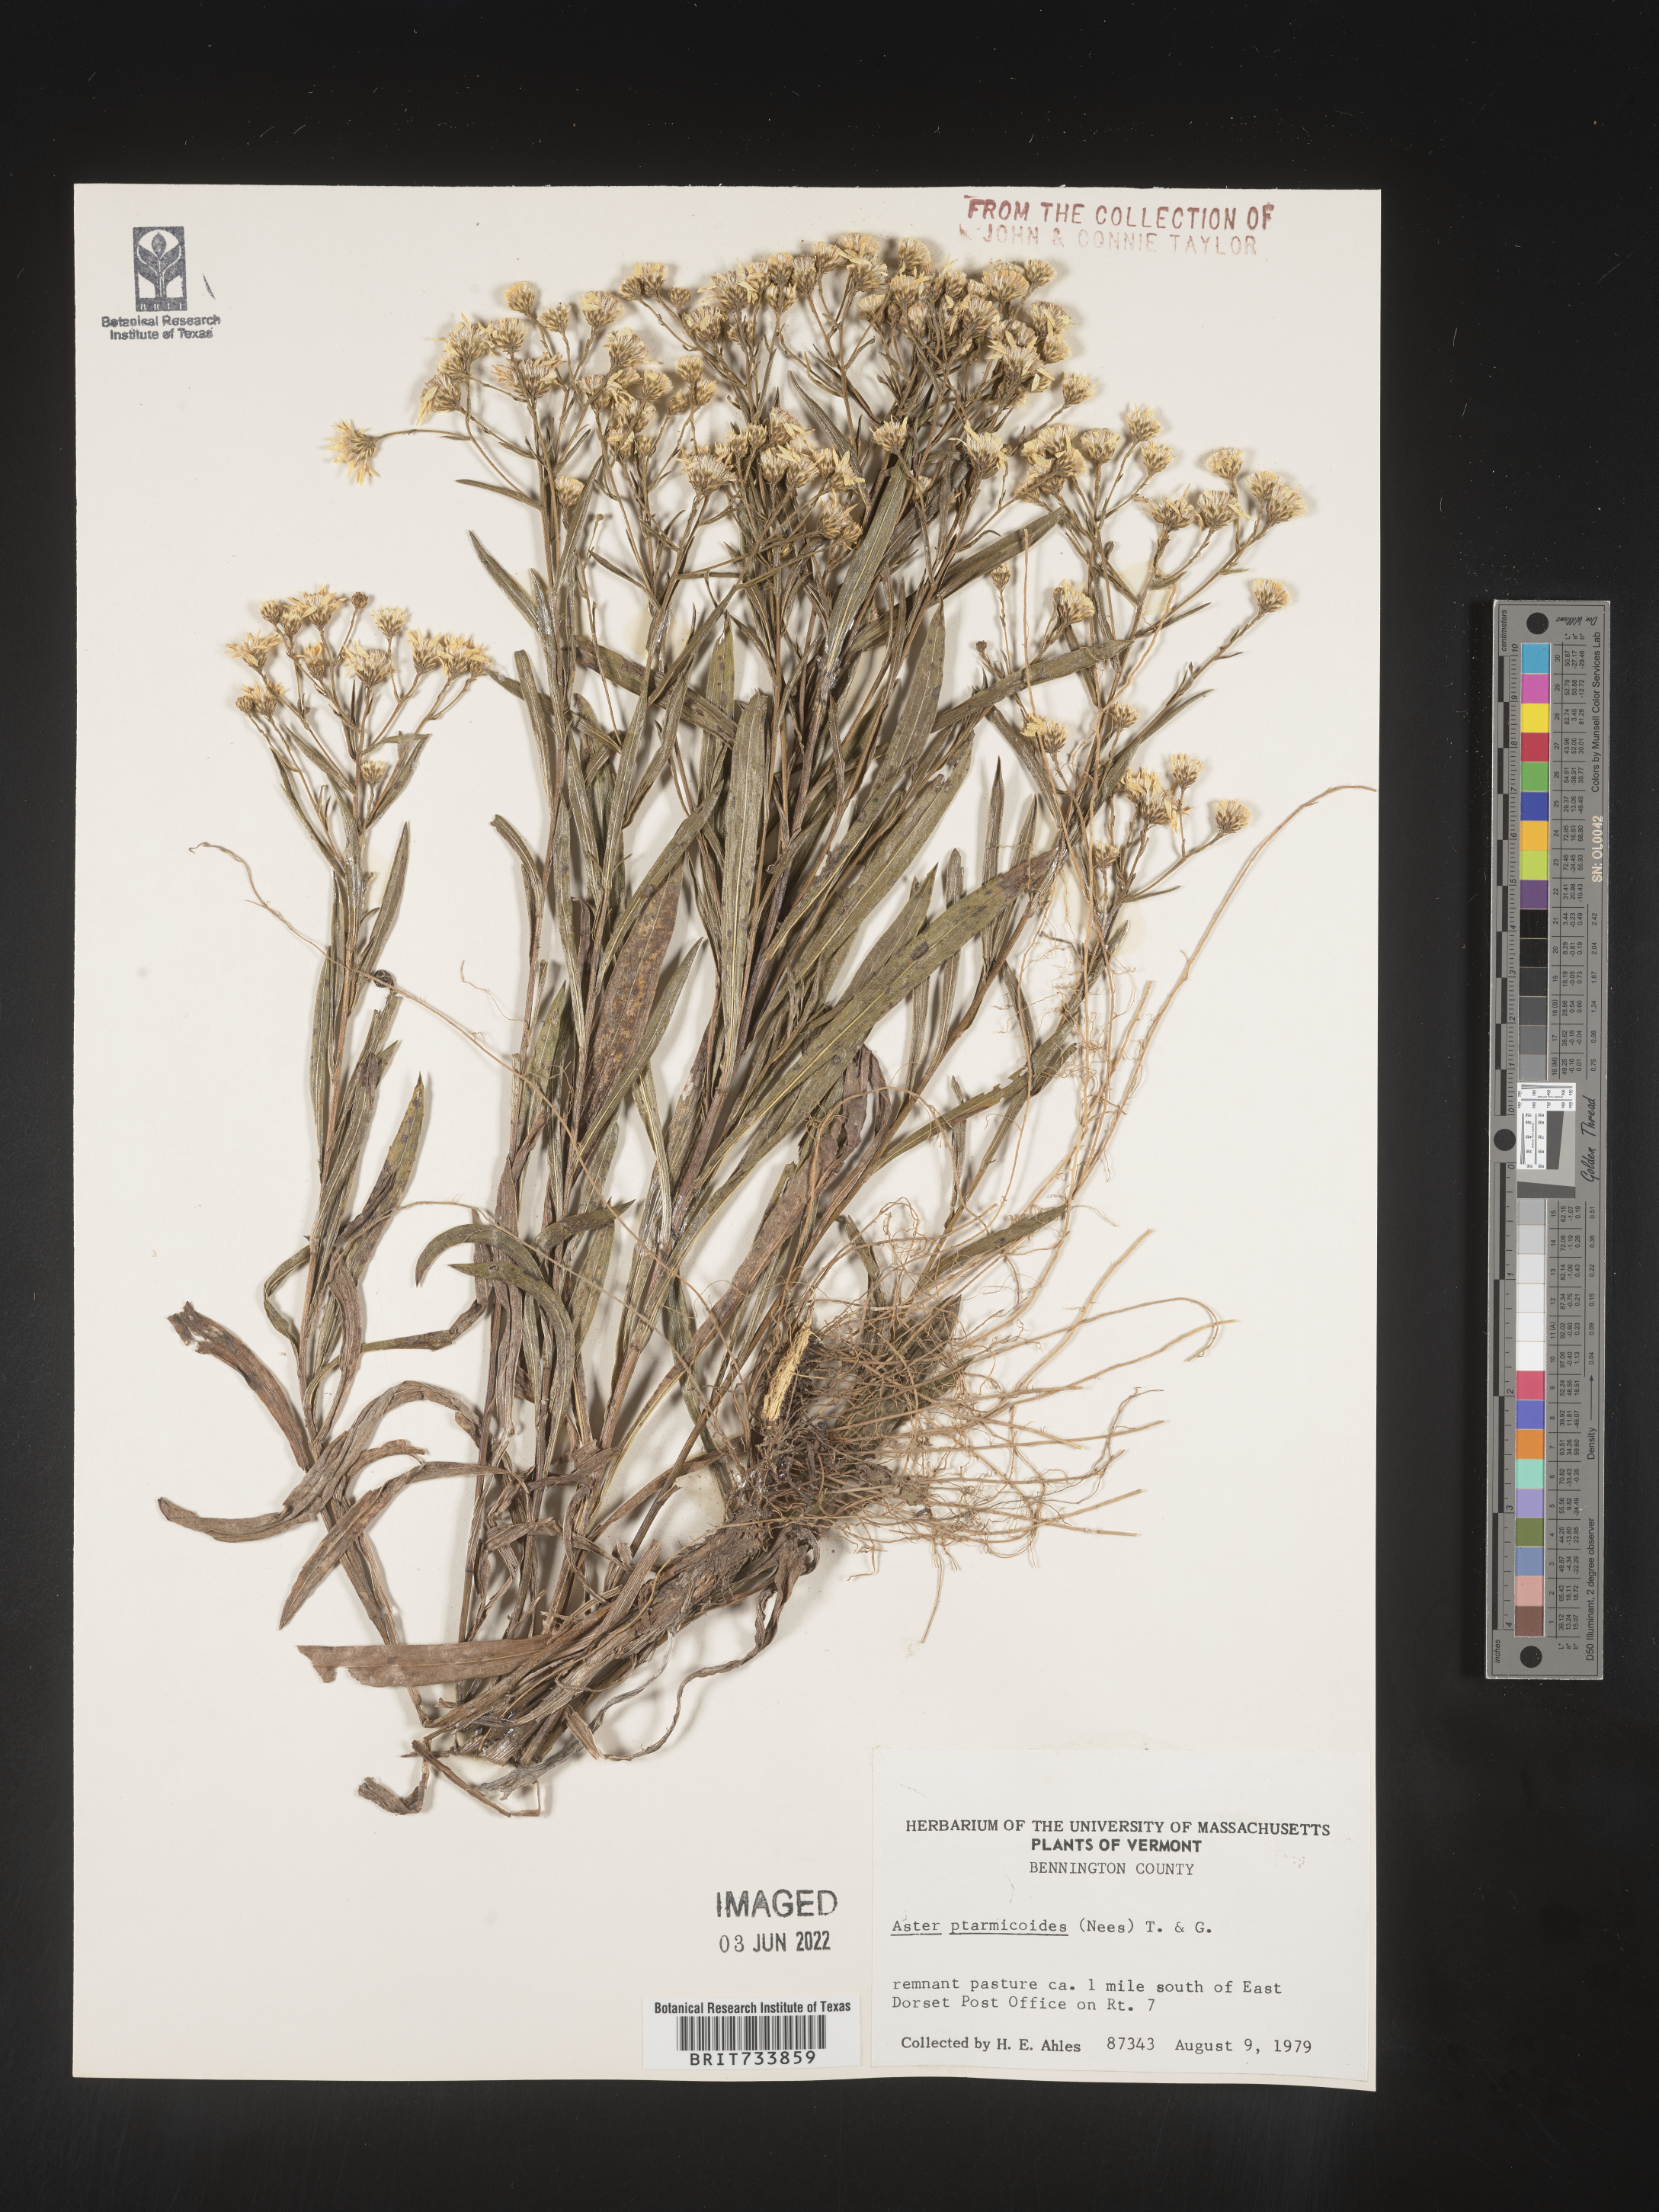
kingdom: Plantae
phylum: Tracheophyta
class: Magnoliopsida
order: Asterales
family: Asteraceae
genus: Solidago
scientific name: Solidago ptarmicoides
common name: White flat-top goldenrod
